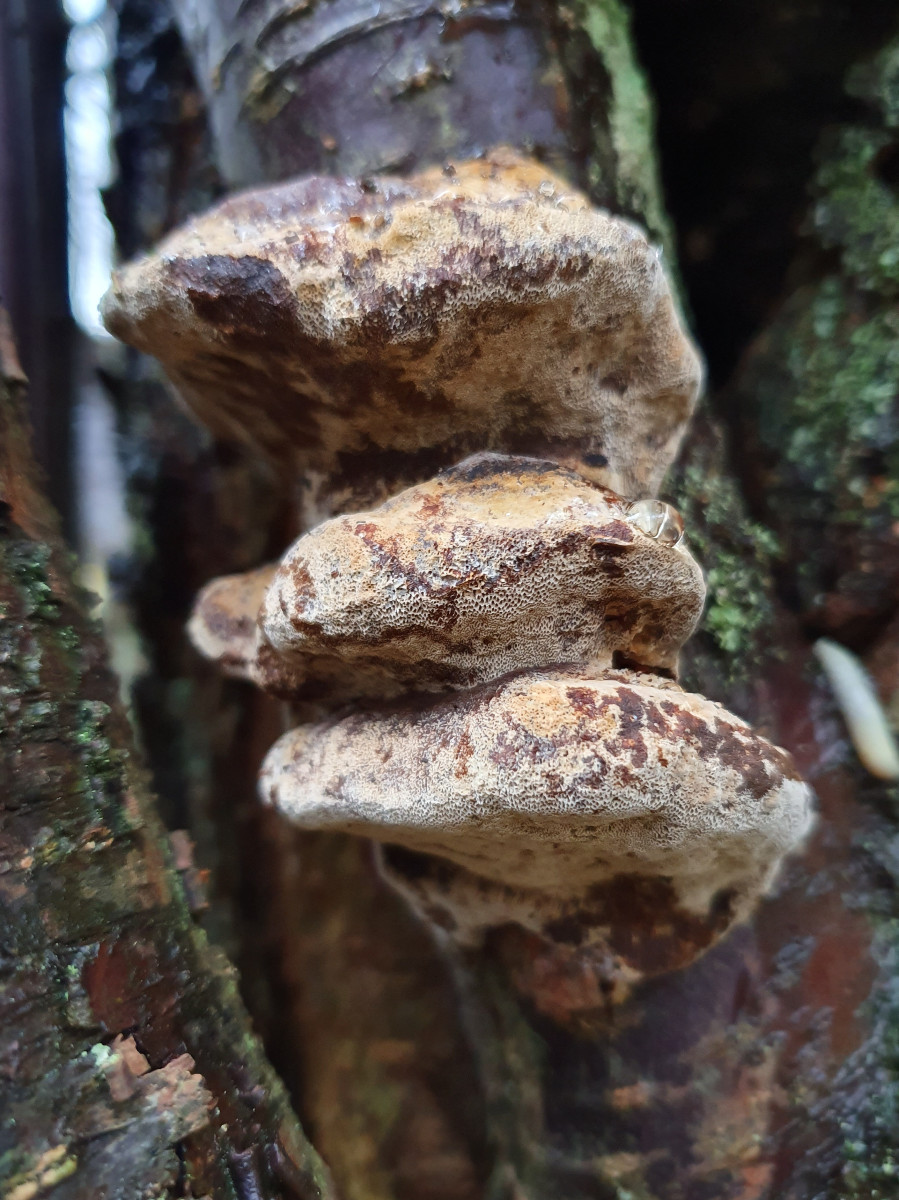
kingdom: Fungi
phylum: Basidiomycota
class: Agaricomycetes
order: Hymenochaetales
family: Hymenochaetaceae
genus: Phellinus
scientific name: Phellinus pomaceus
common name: blomme-ildporesvamp
